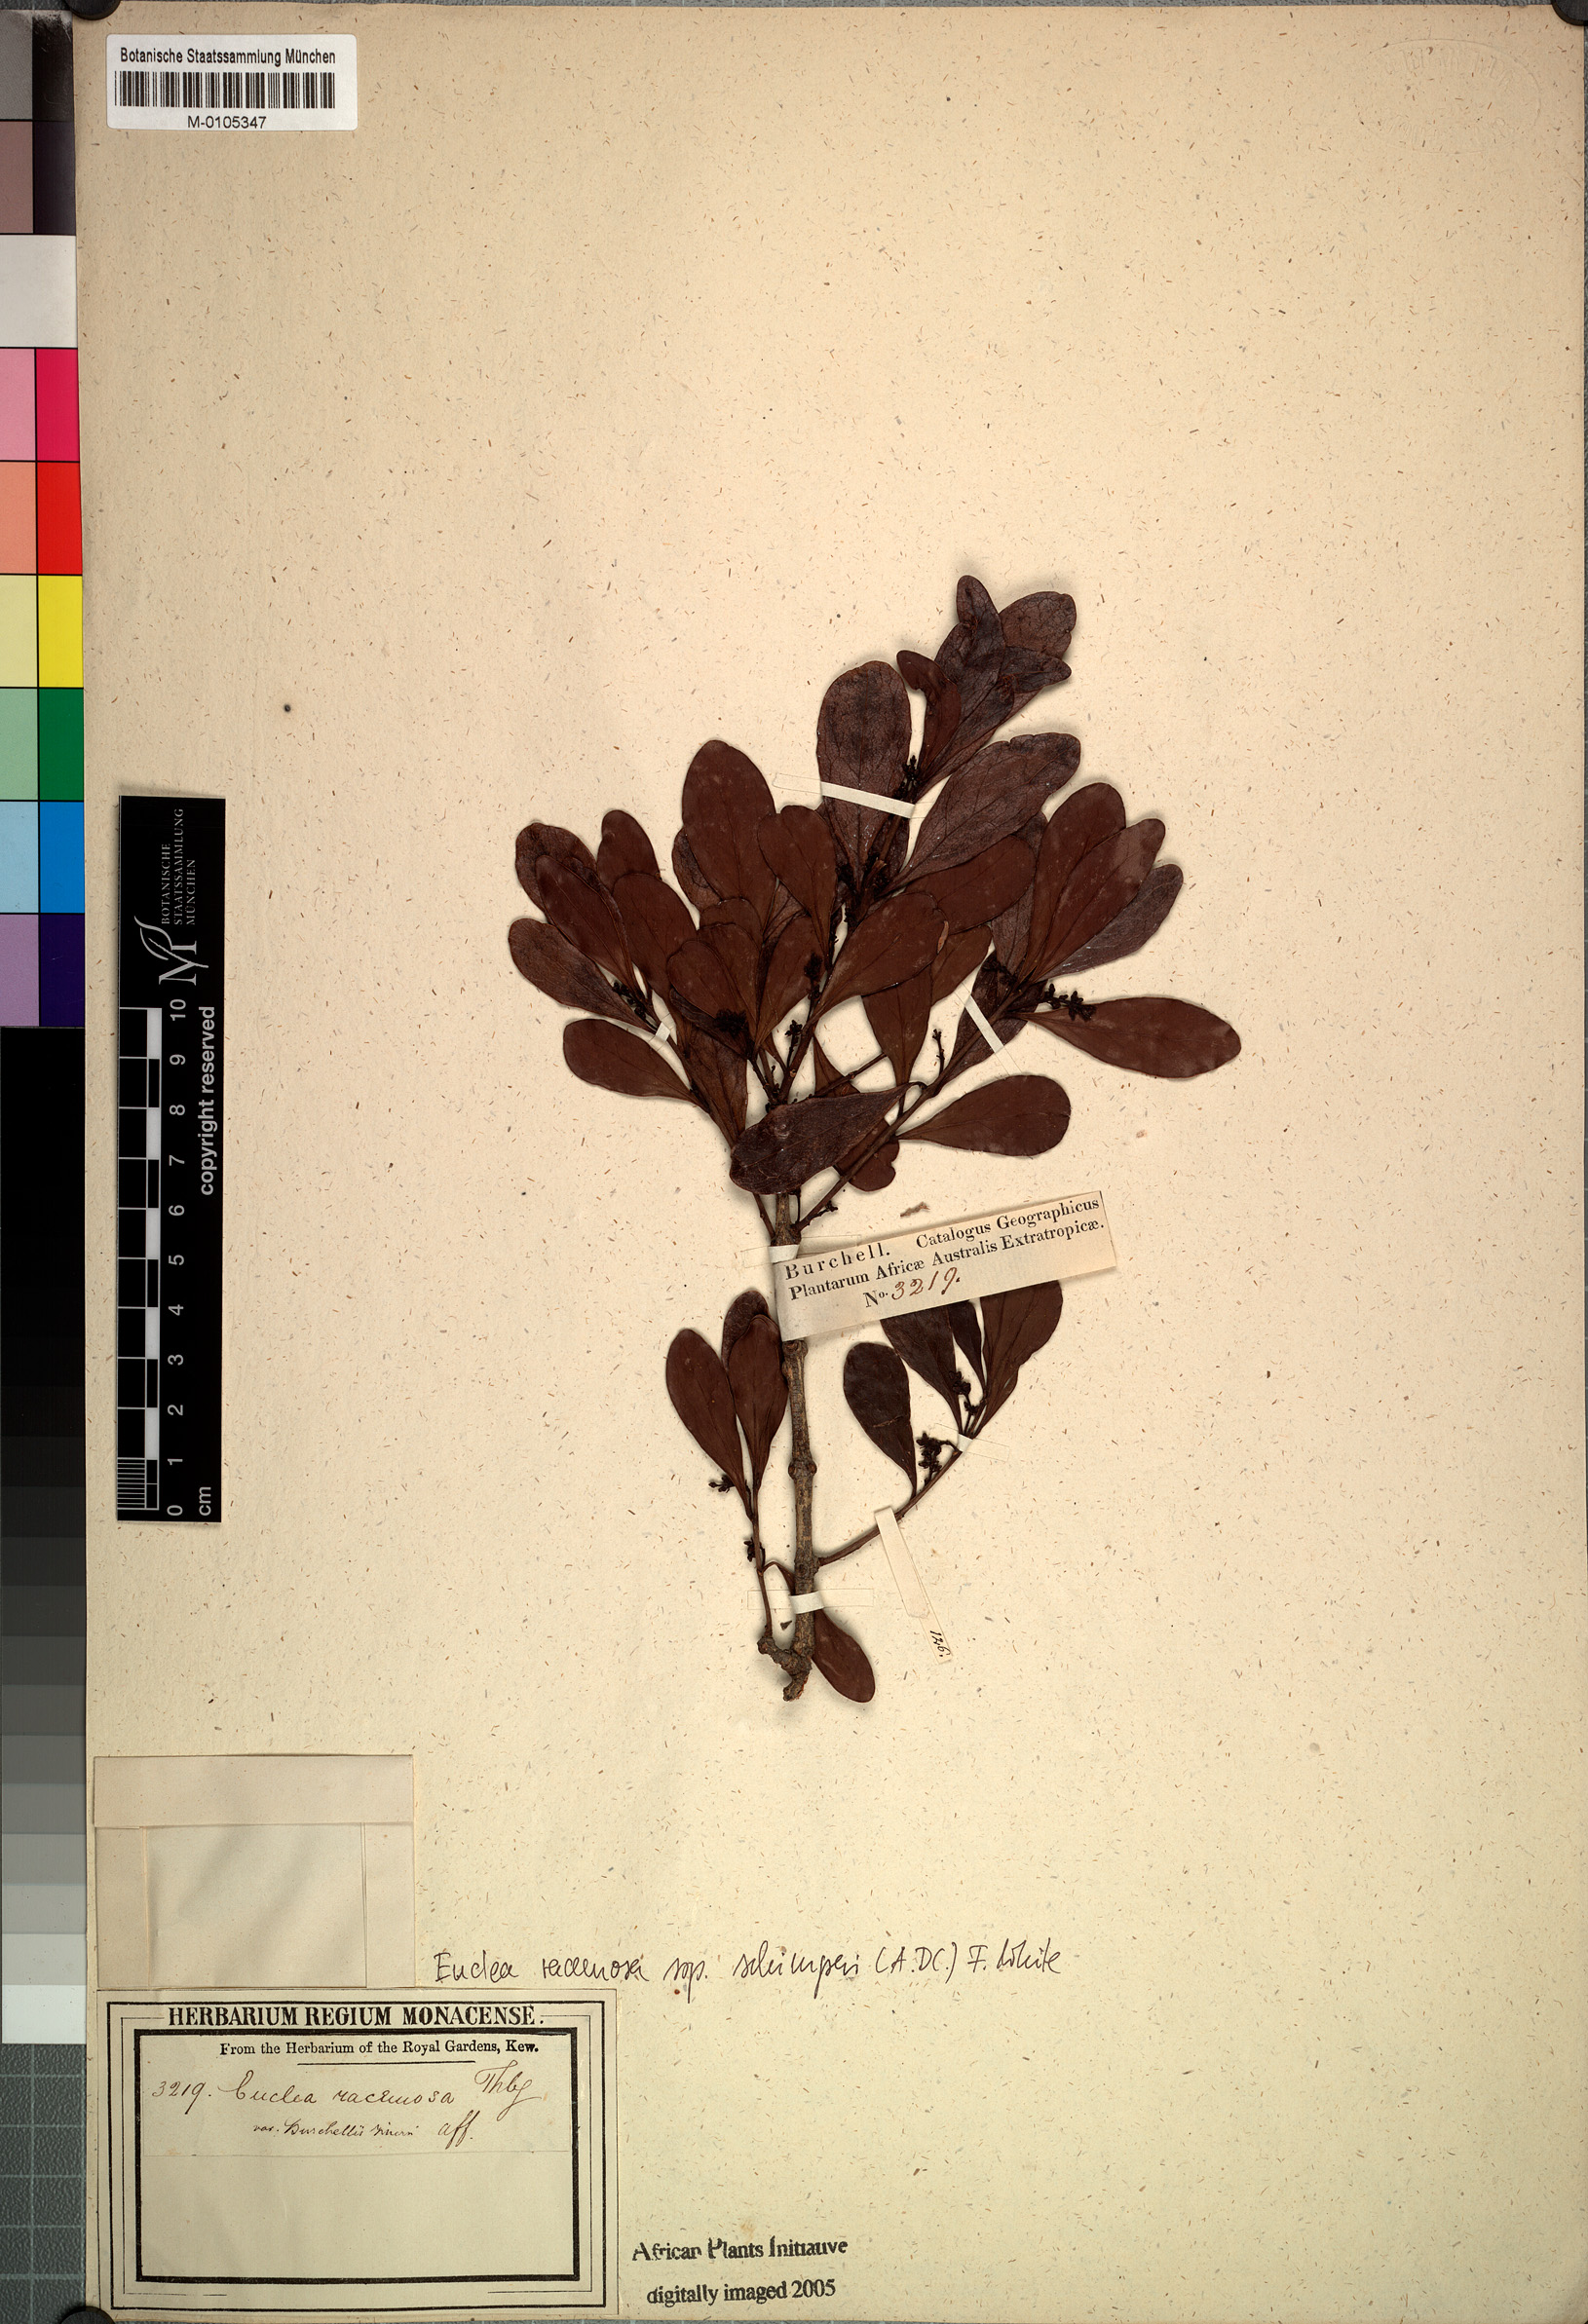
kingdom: Plantae
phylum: Tracheophyta
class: Magnoliopsida
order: Ericales
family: Ebenaceae
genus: Euclea
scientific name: Euclea racemosa
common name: Dune guarri
